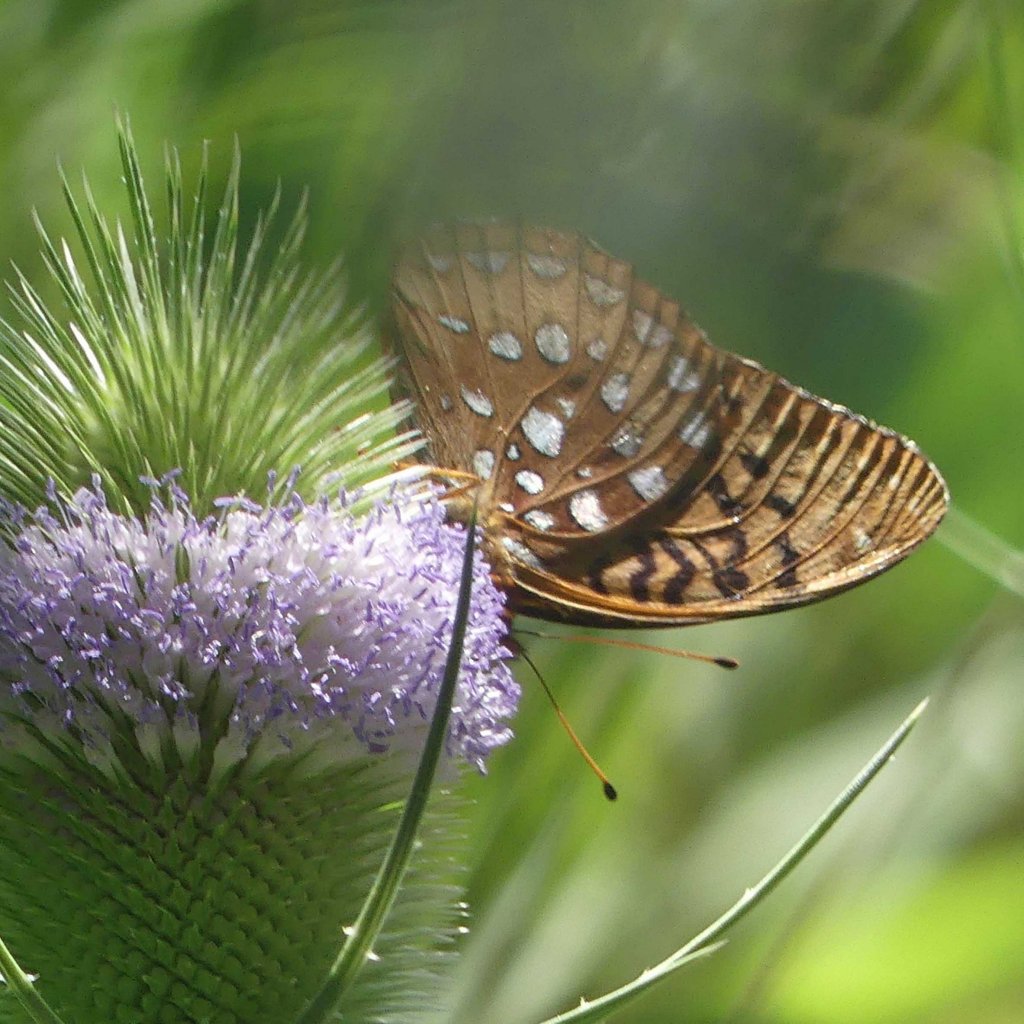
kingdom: Animalia
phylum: Arthropoda
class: Insecta
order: Lepidoptera
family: Nymphalidae
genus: Speyeria
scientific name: Speyeria cybele
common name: Great Spangled Fritillary
